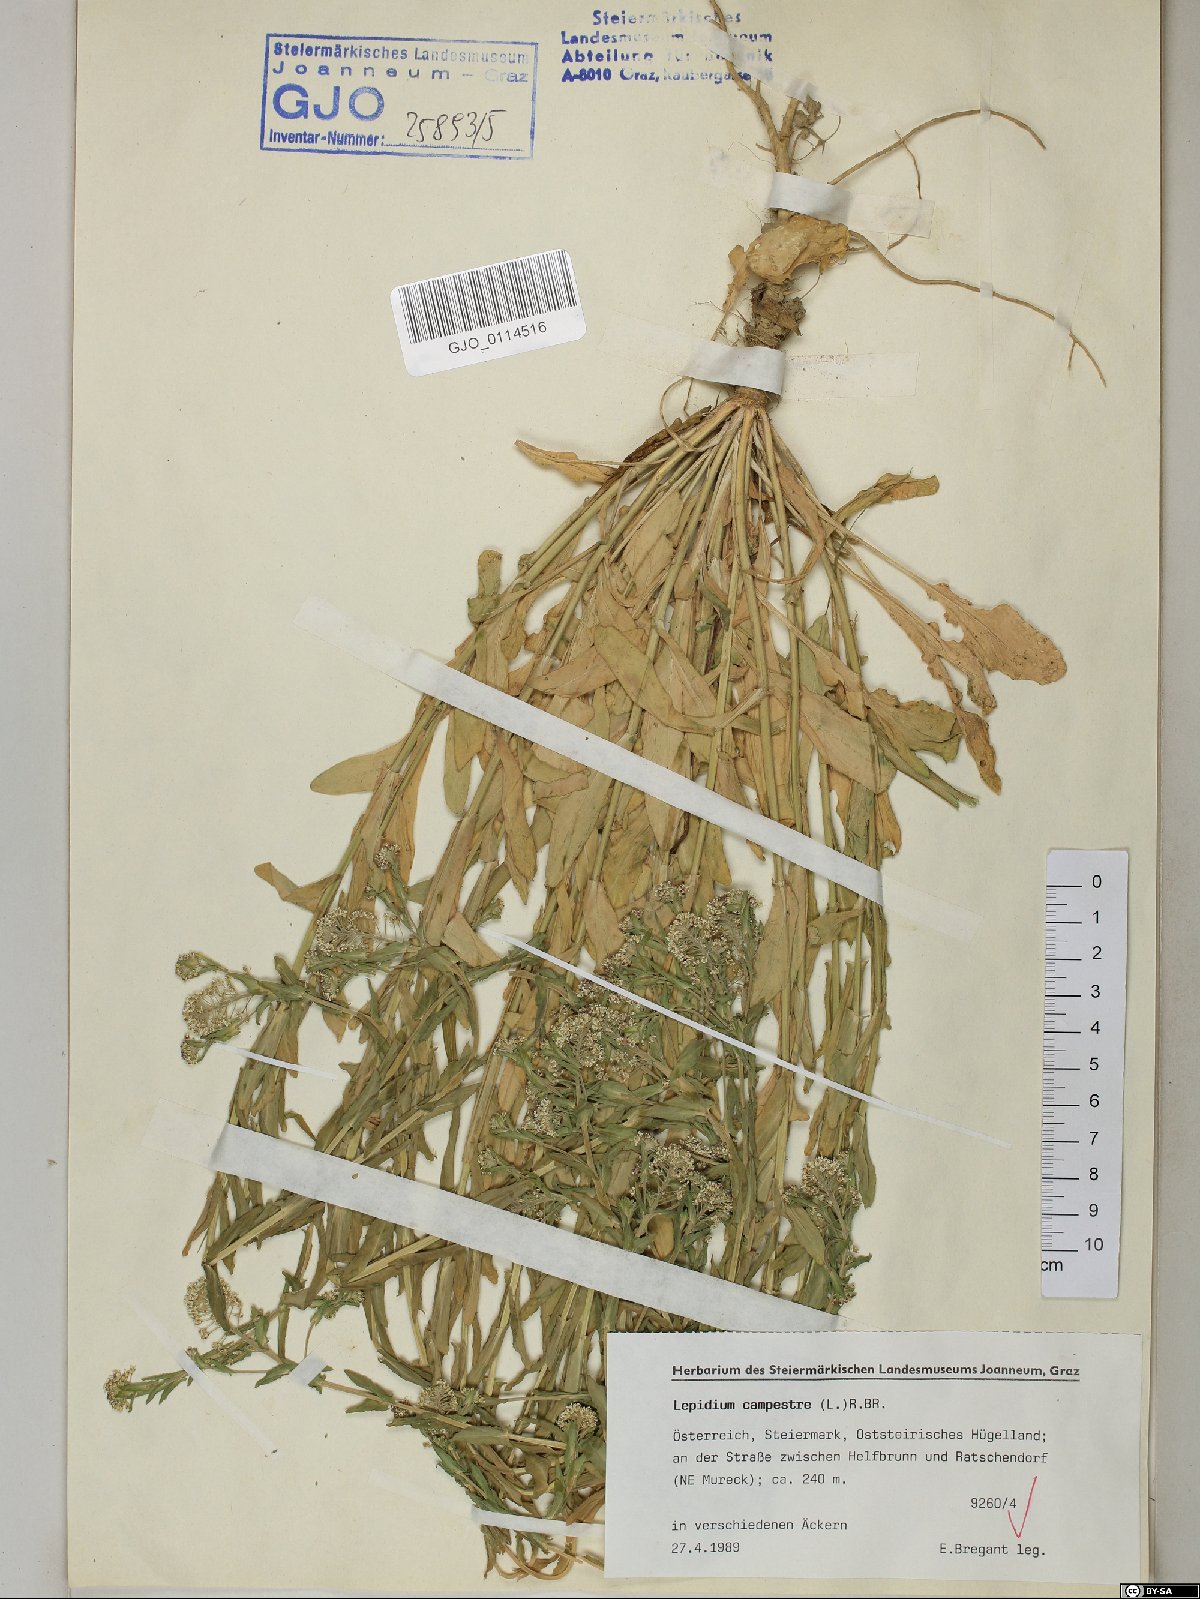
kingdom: Plantae
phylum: Tracheophyta
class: Magnoliopsida
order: Brassicales
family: Brassicaceae
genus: Lepidium
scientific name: Lepidium campestre
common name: Field pepperwort
